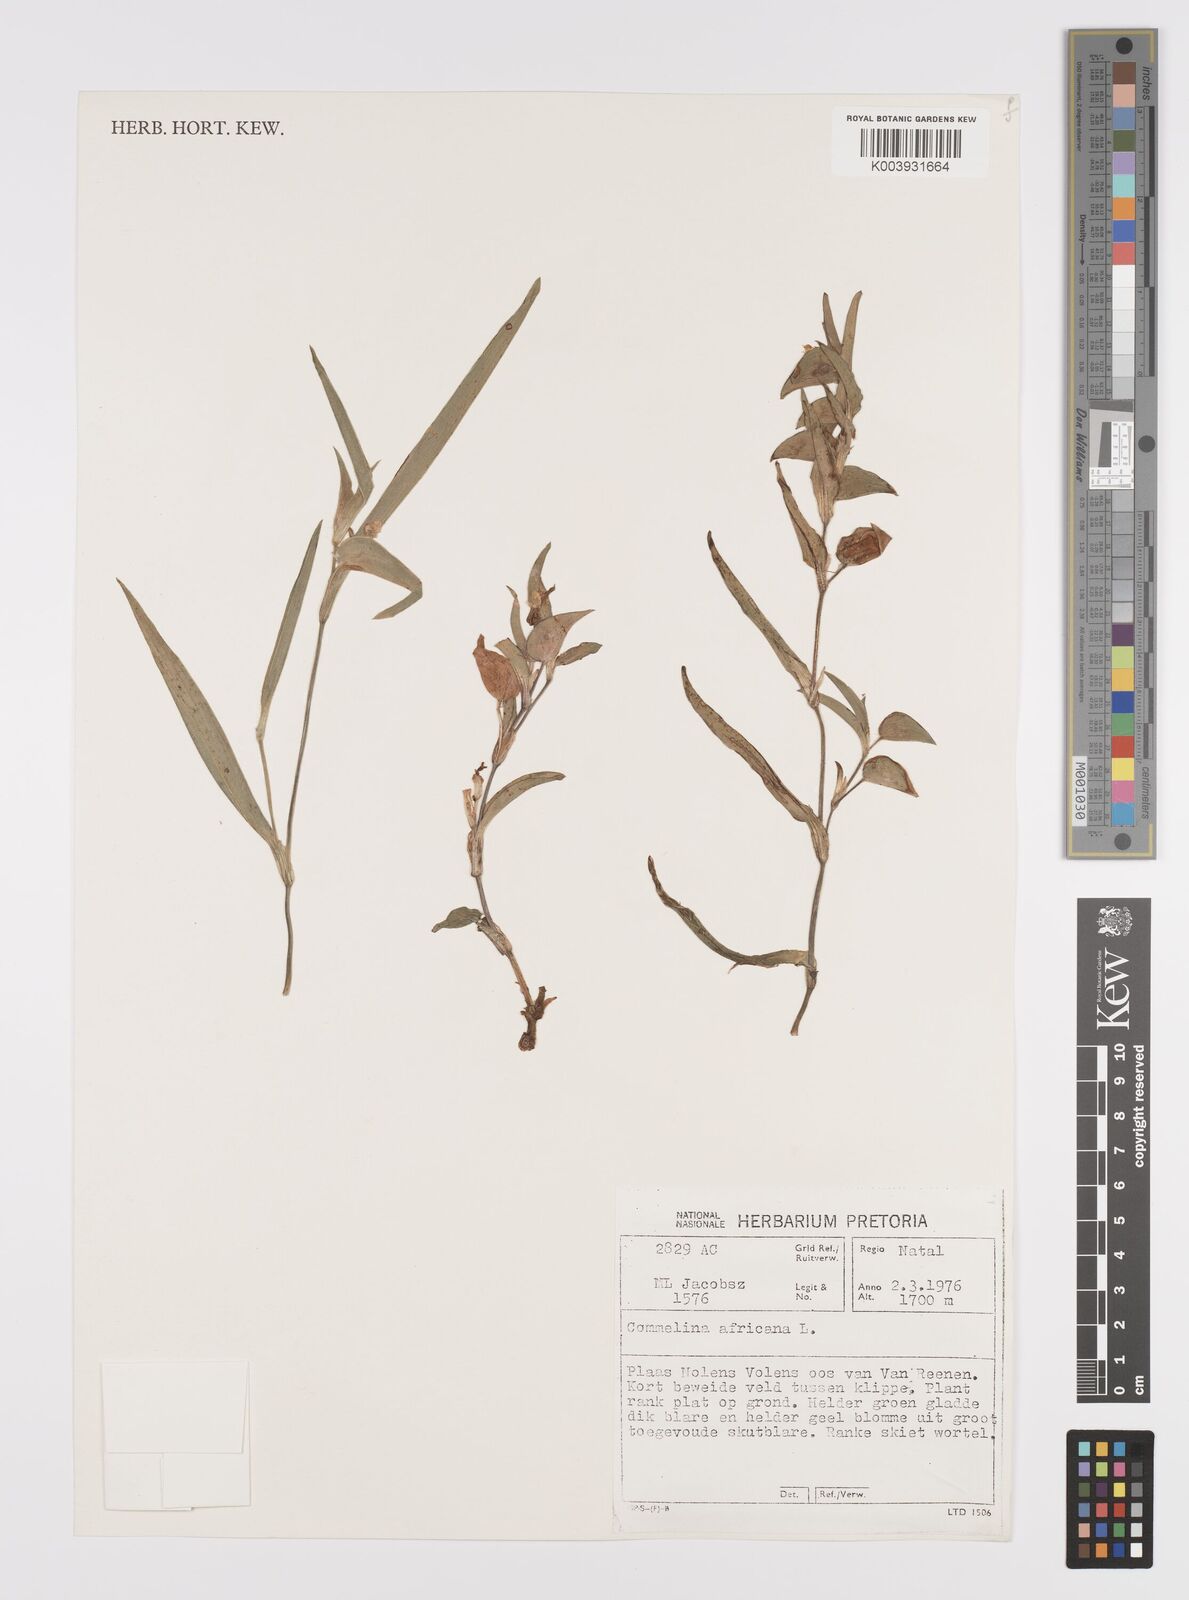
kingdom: Plantae
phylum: Tracheophyta
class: Liliopsida
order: Commelinales
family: Commelinaceae
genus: Commelina
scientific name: Commelina africana
